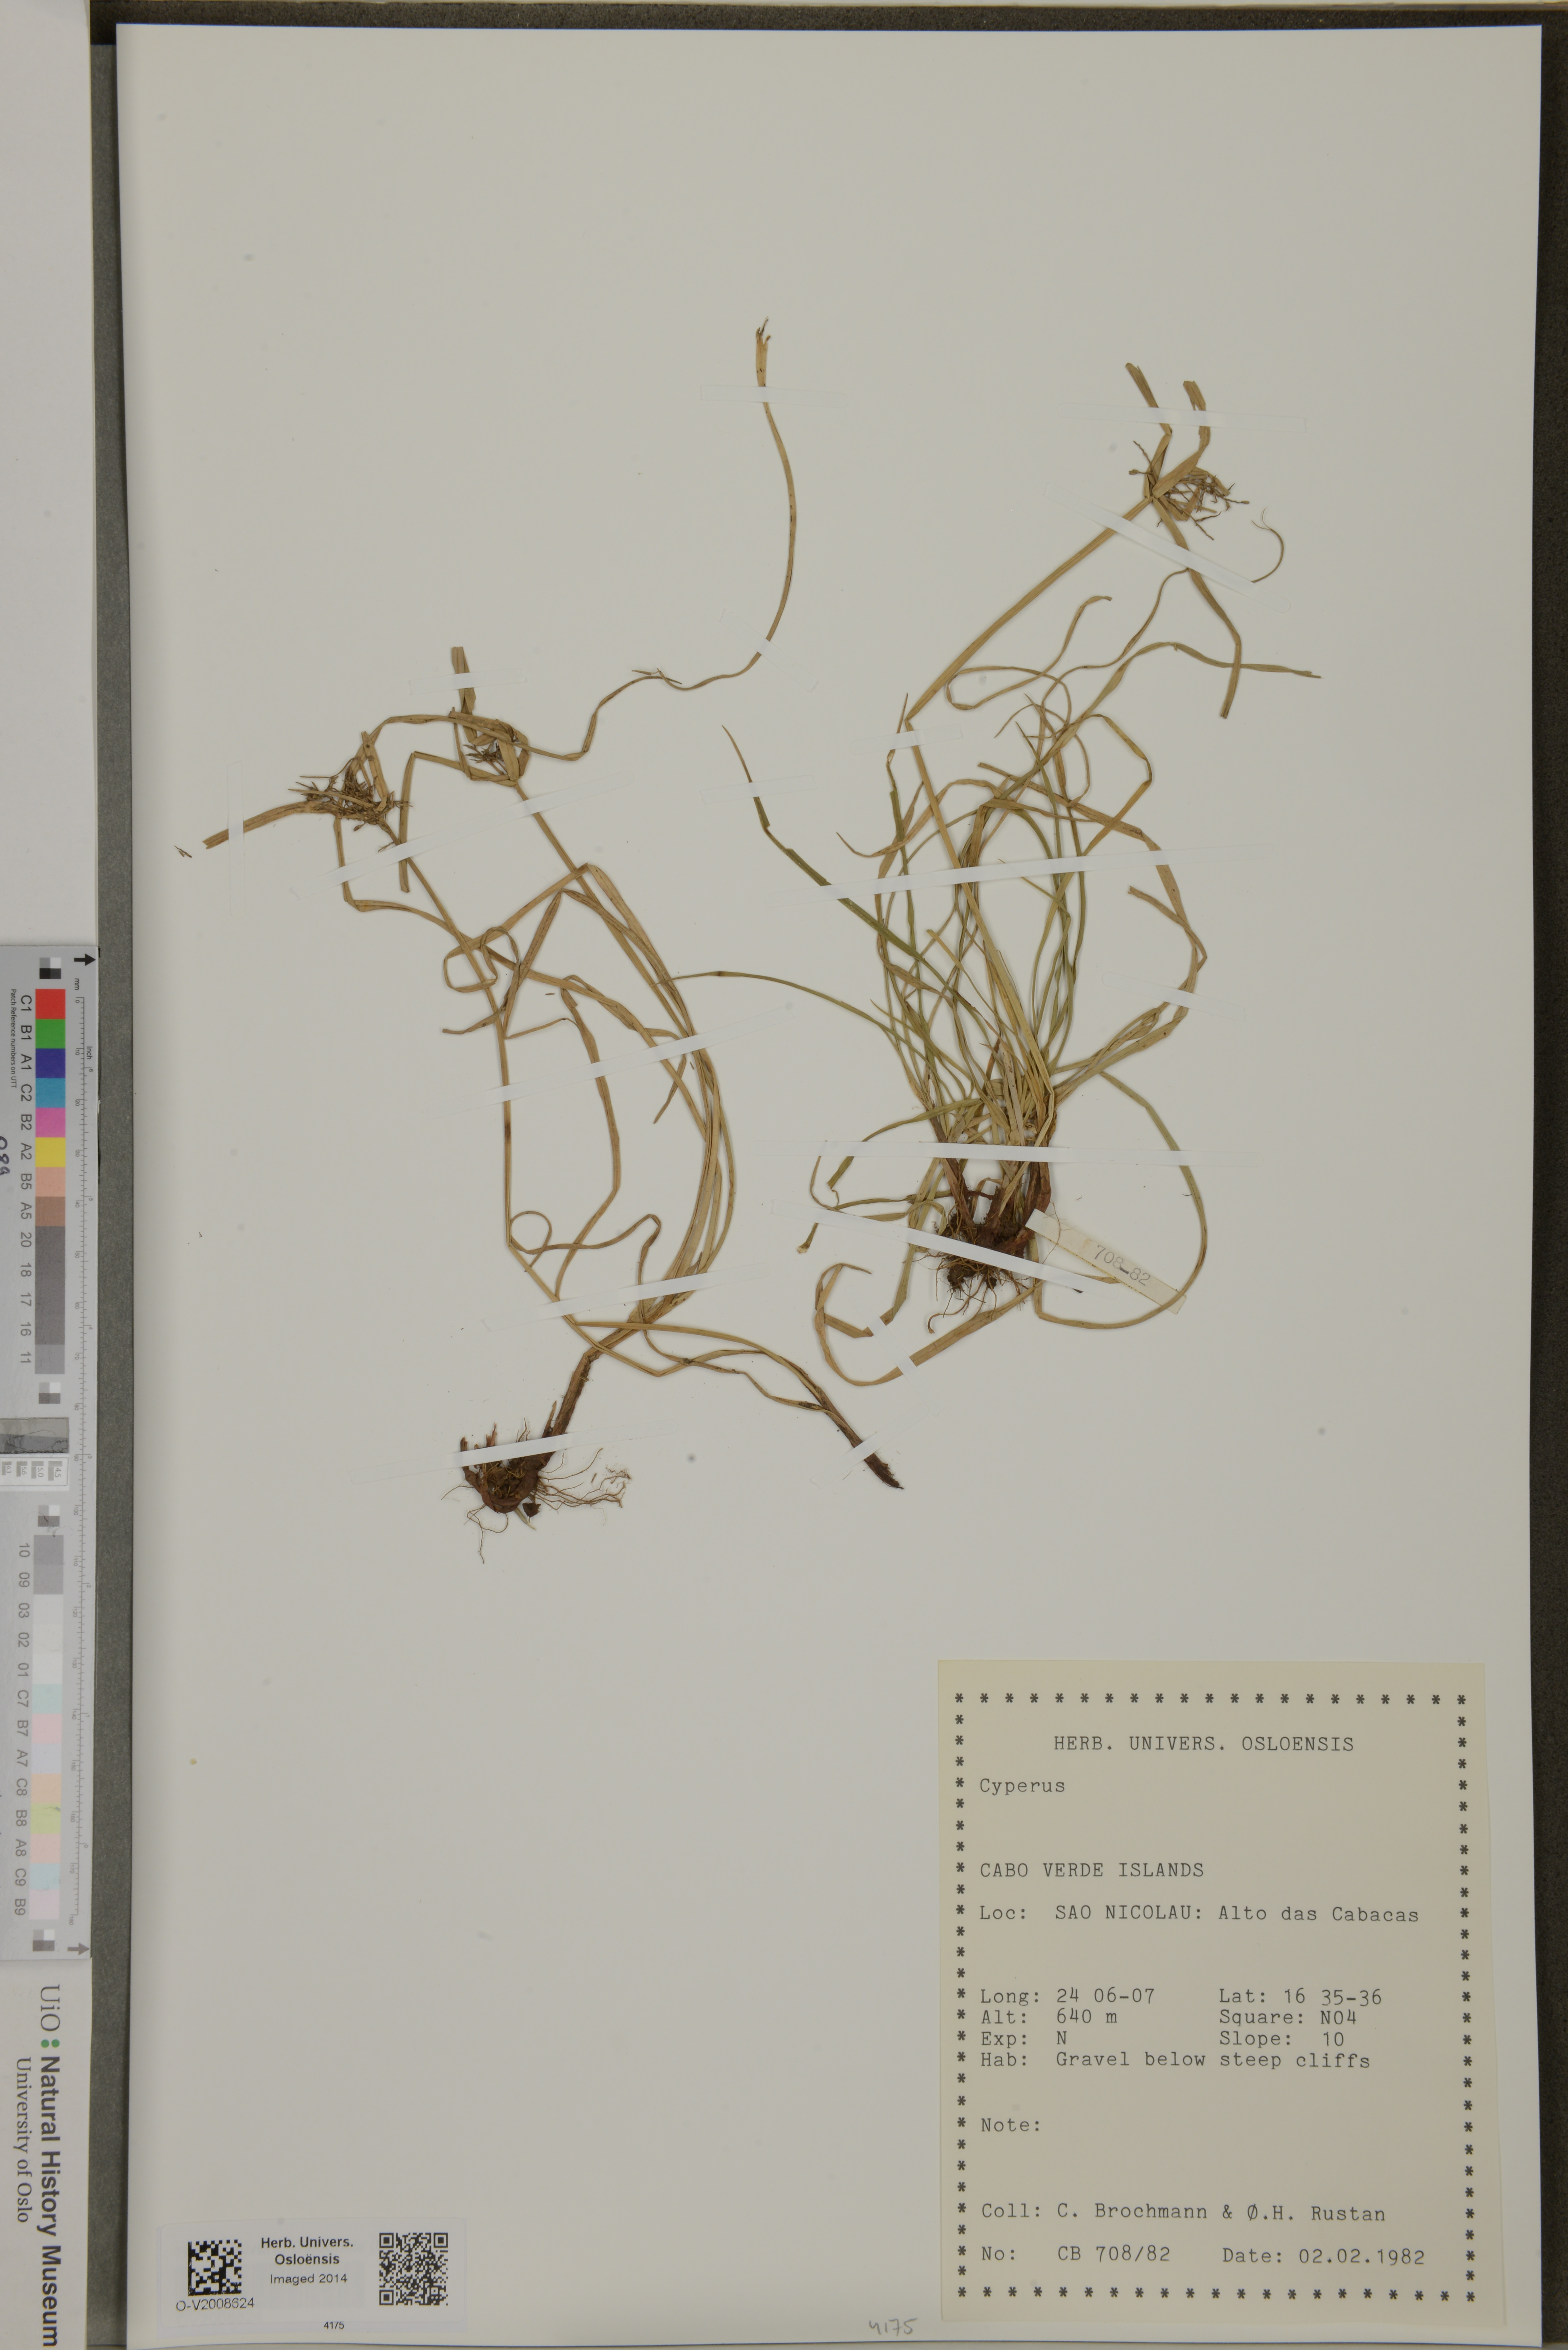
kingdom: Plantae
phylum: Tracheophyta
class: Liliopsida
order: Poales
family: Cyperaceae
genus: Cyperus
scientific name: Cyperus
